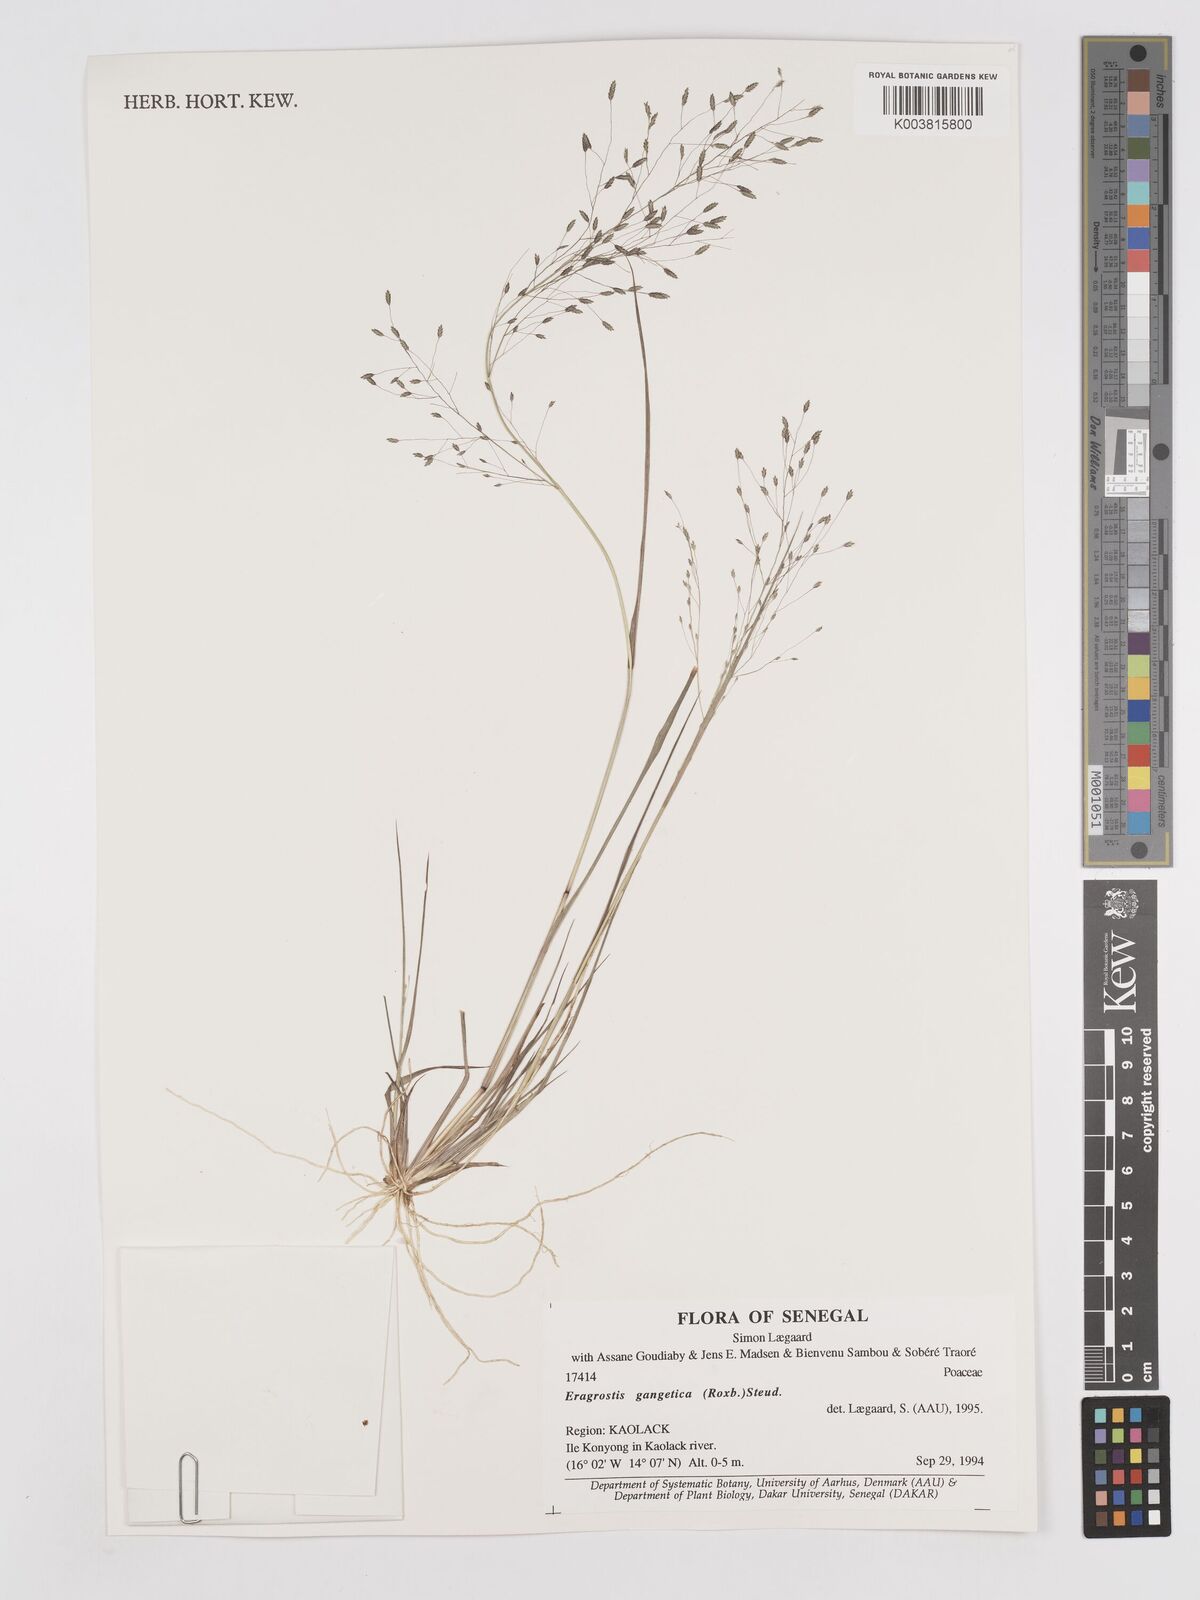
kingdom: Plantae
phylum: Tracheophyta
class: Liliopsida
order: Poales
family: Poaceae
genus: Eragrostis
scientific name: Eragrostis gangetica
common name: Slimflower lovegrass
